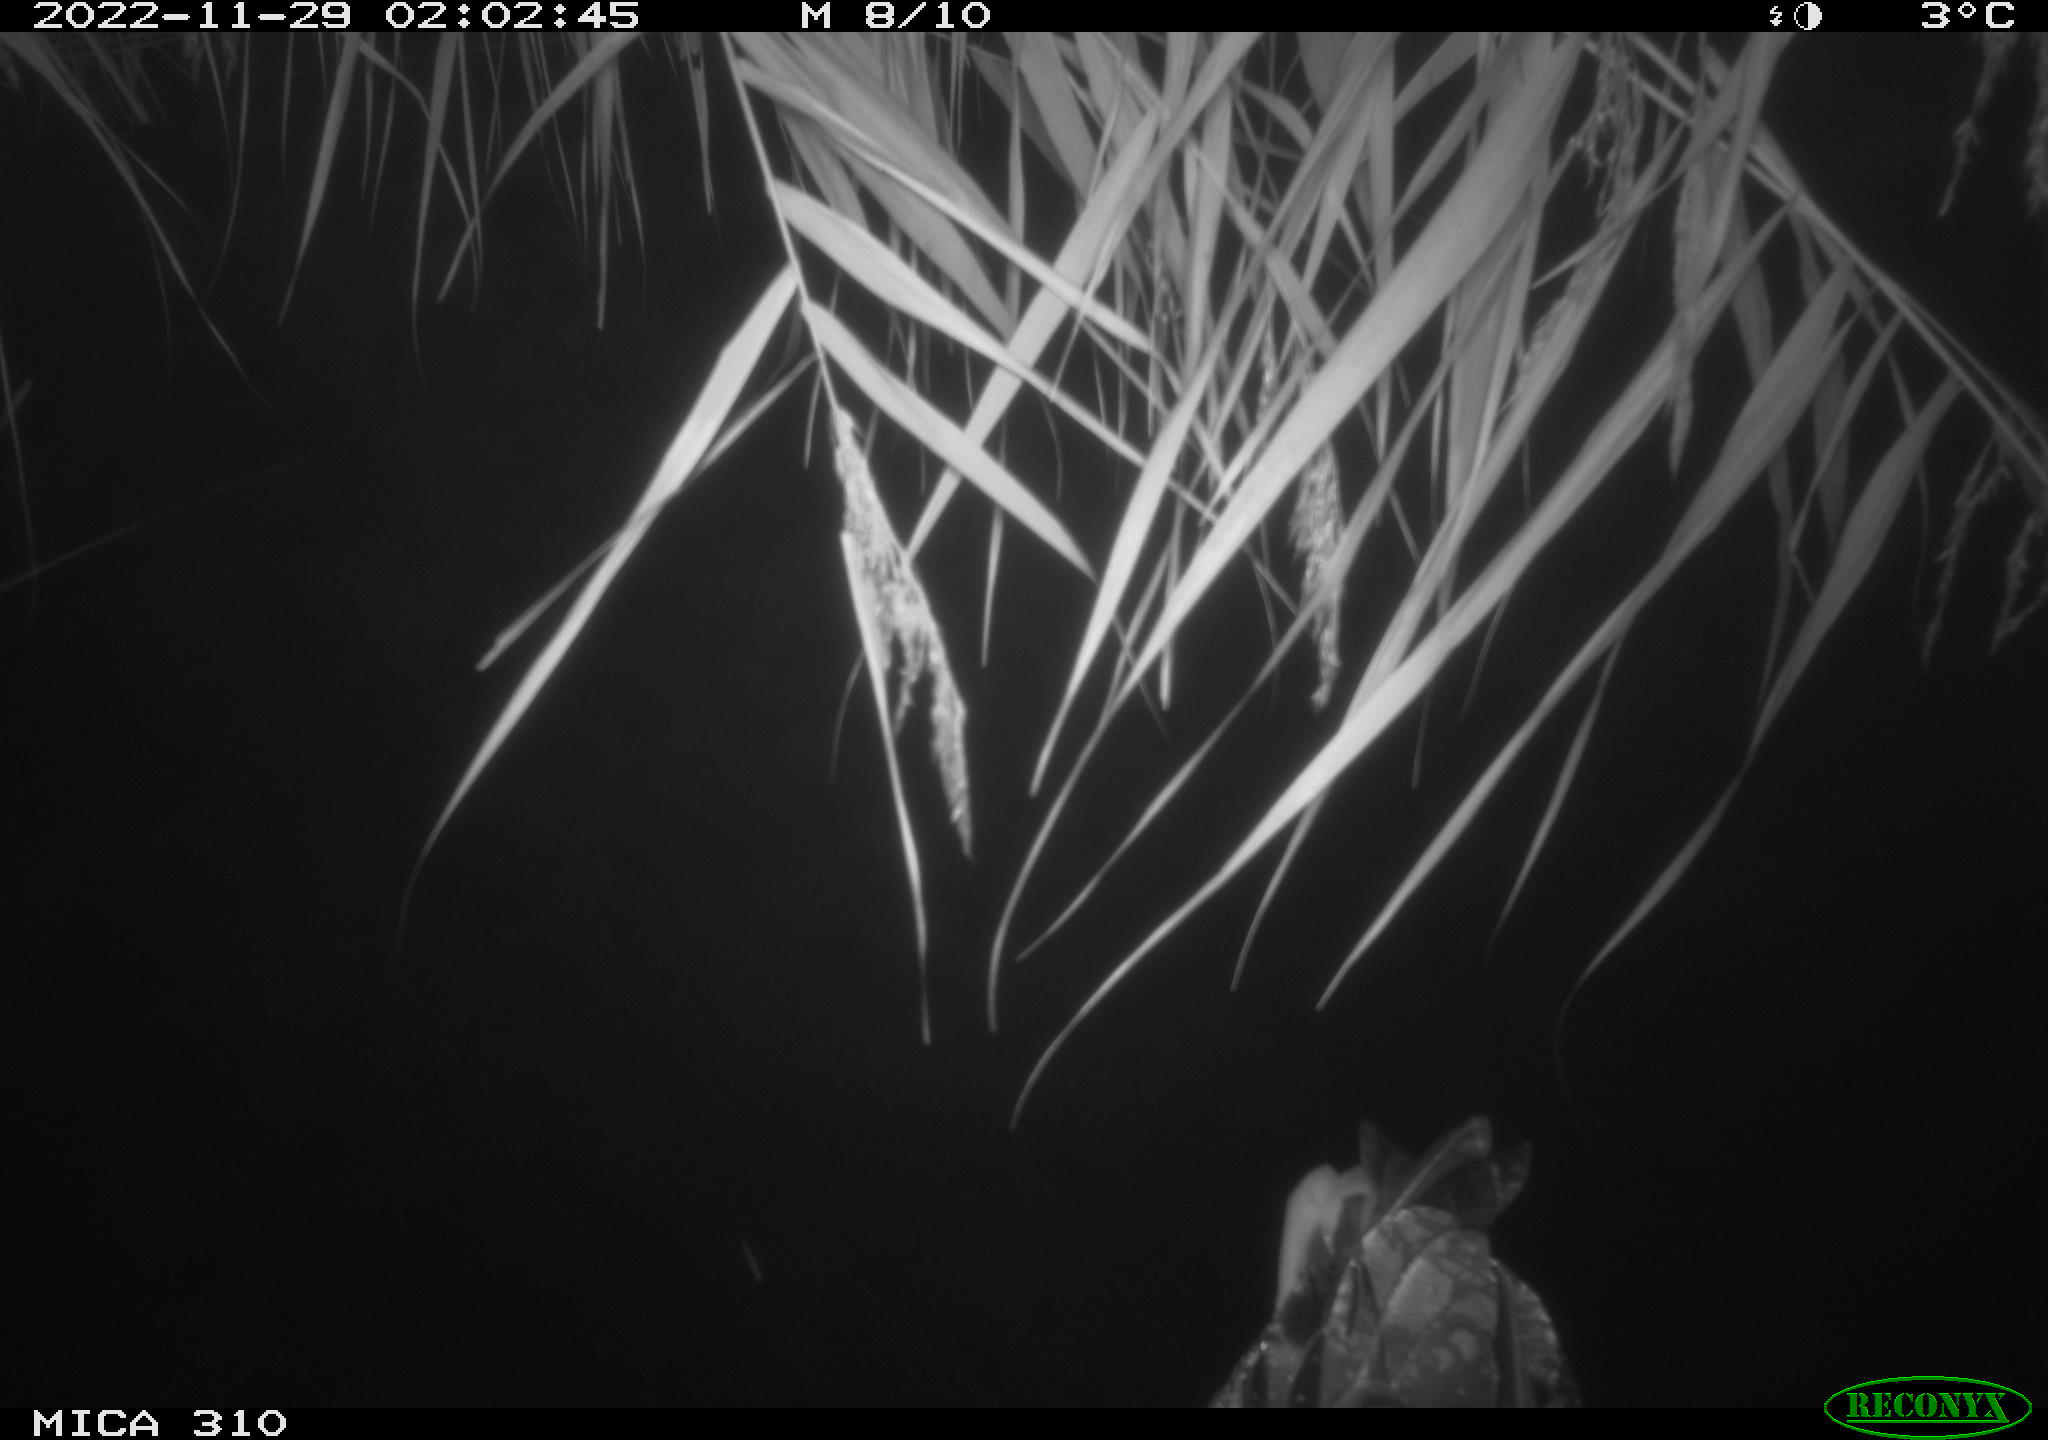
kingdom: Animalia
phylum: Chordata
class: Mammalia
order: Rodentia
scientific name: Rodentia
